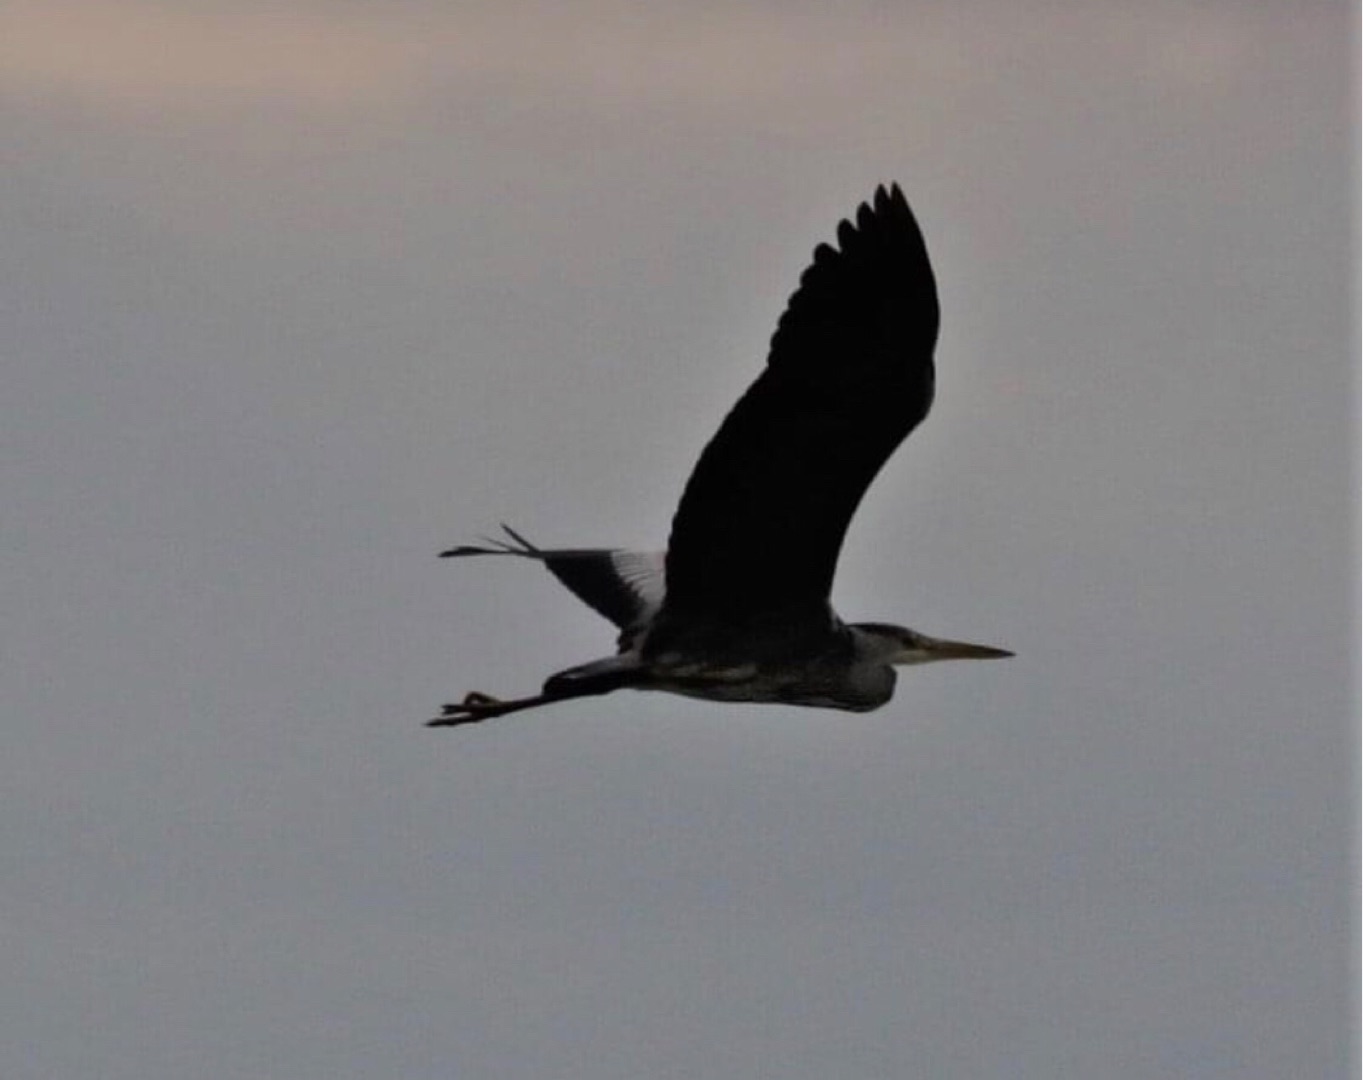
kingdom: Animalia
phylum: Chordata
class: Aves
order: Pelecaniformes
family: Ardeidae
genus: Ardea
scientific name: Ardea cinerea
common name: Fiskehejre
